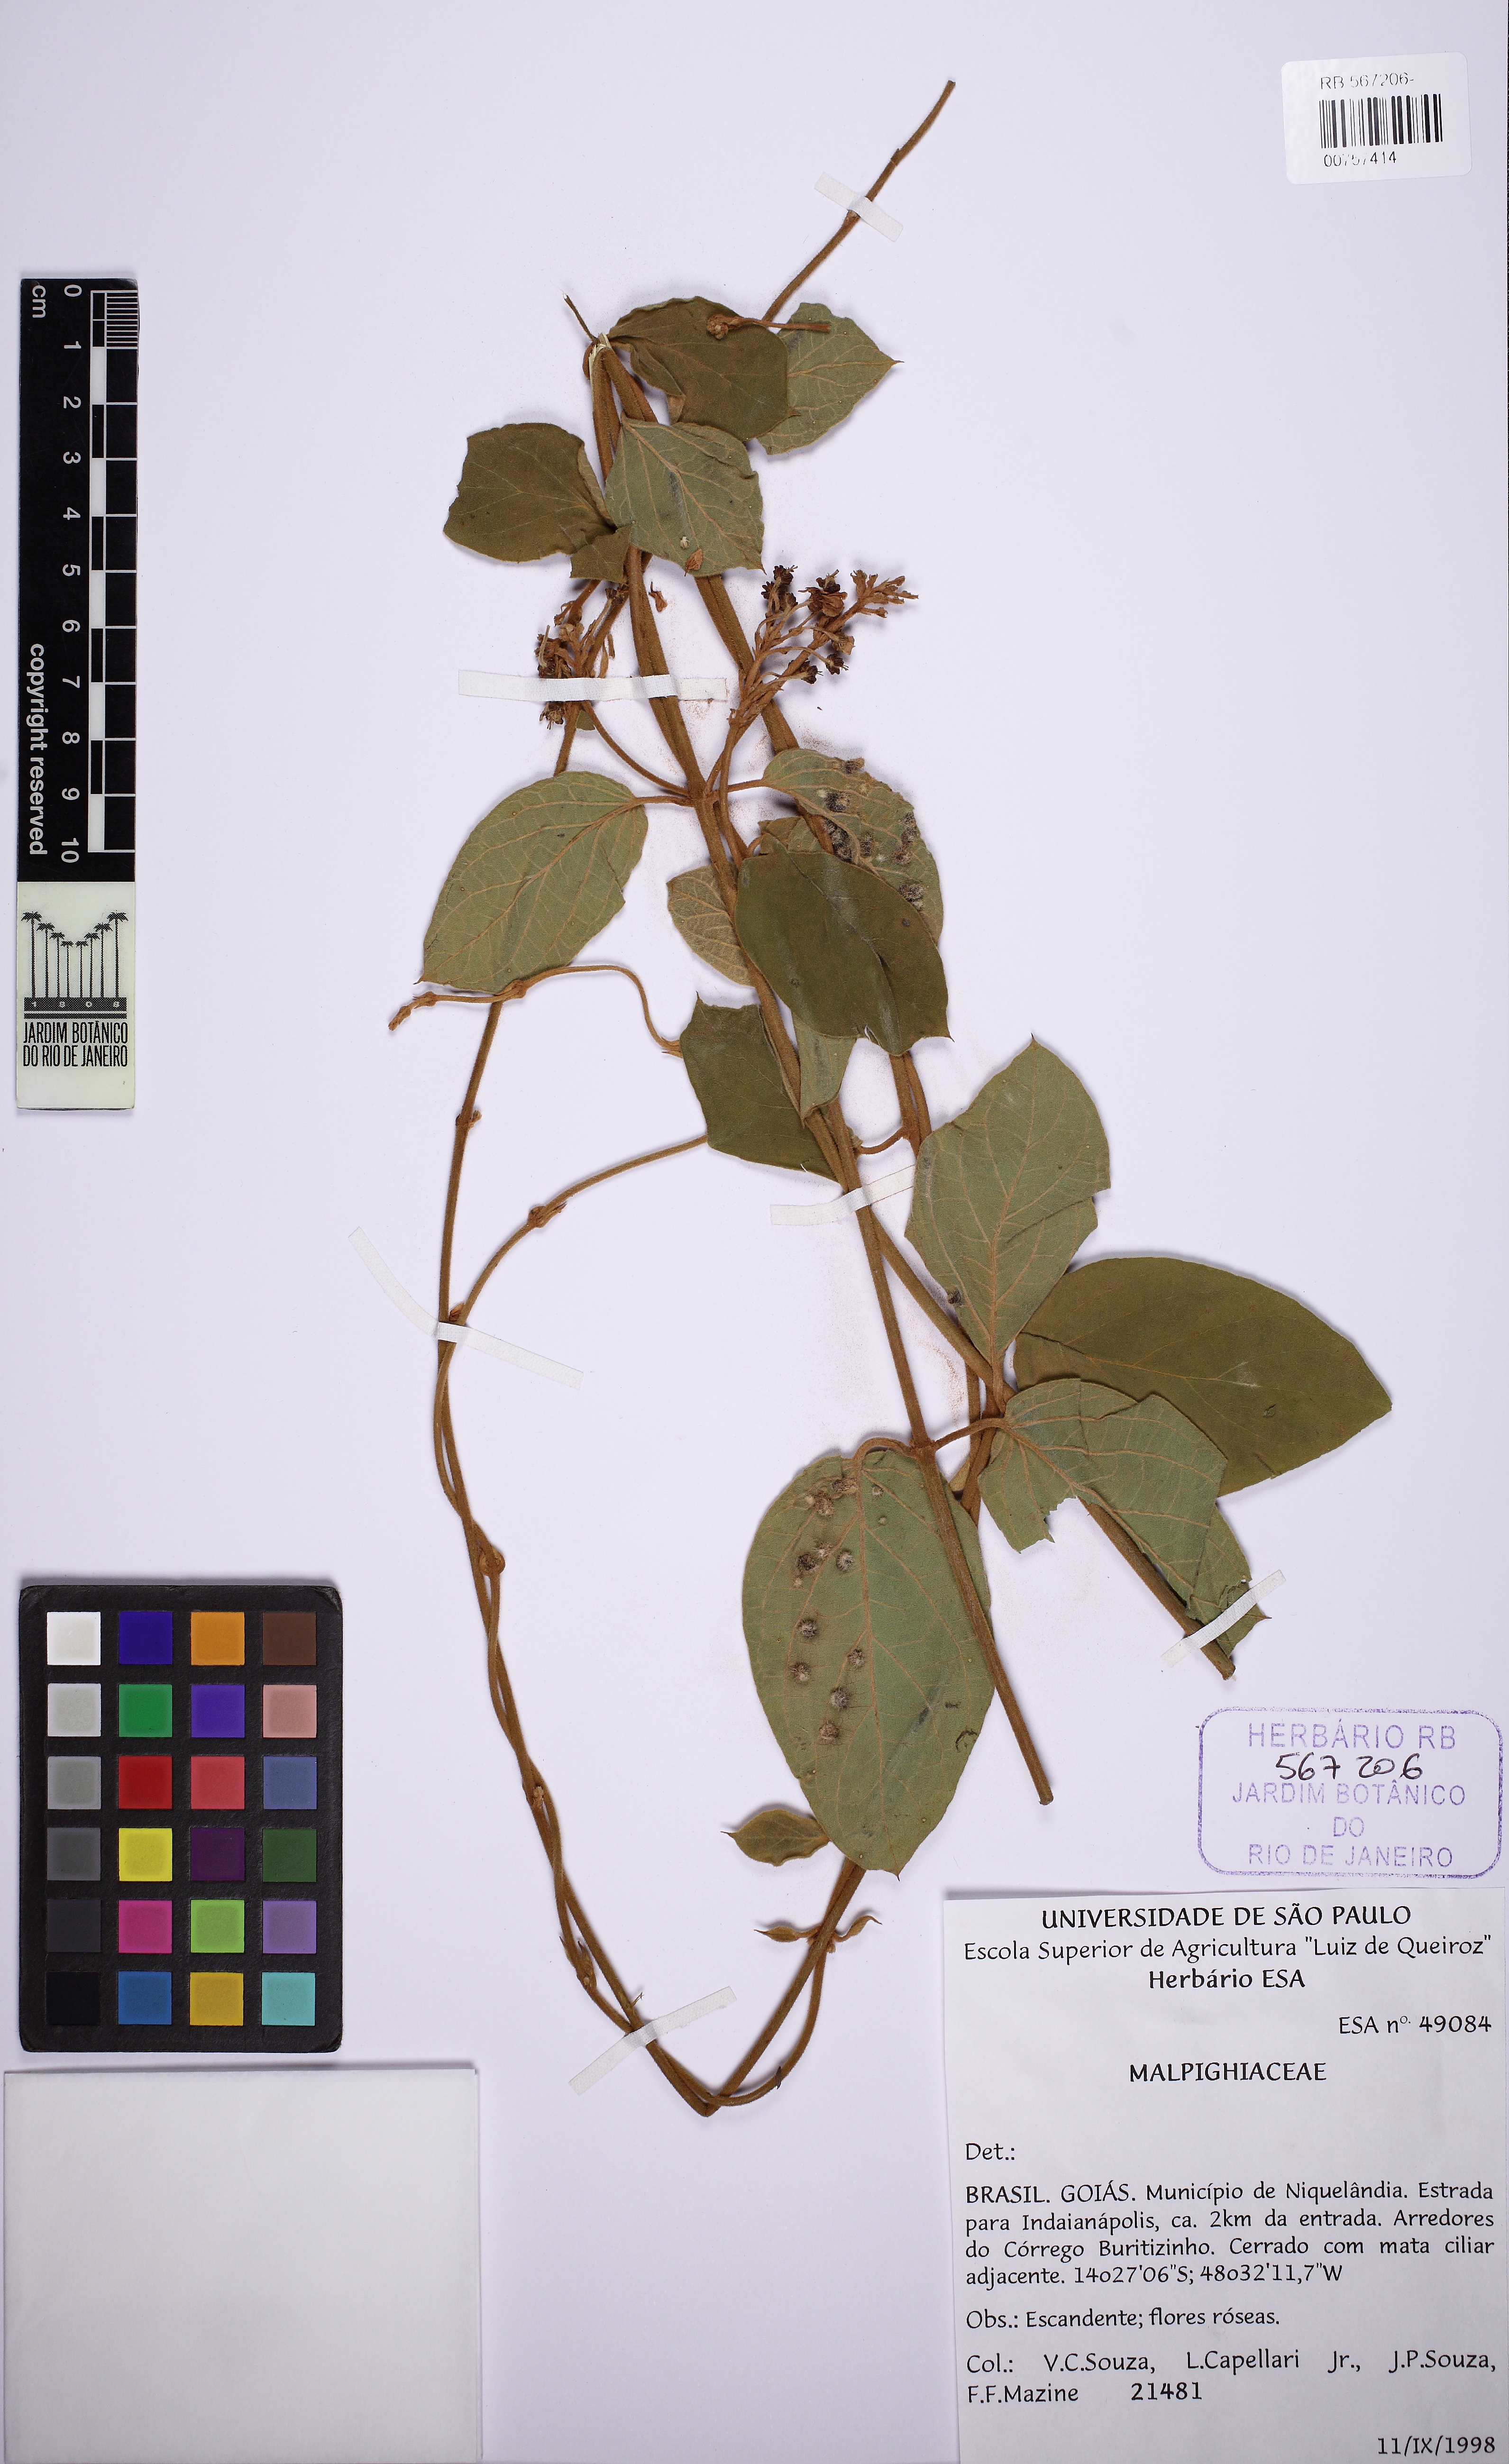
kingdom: Plantae
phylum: Tracheophyta
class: Magnoliopsida
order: Malpighiales
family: Malpighiaceae
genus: Mascagnia
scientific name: Mascagnia cordifolia
